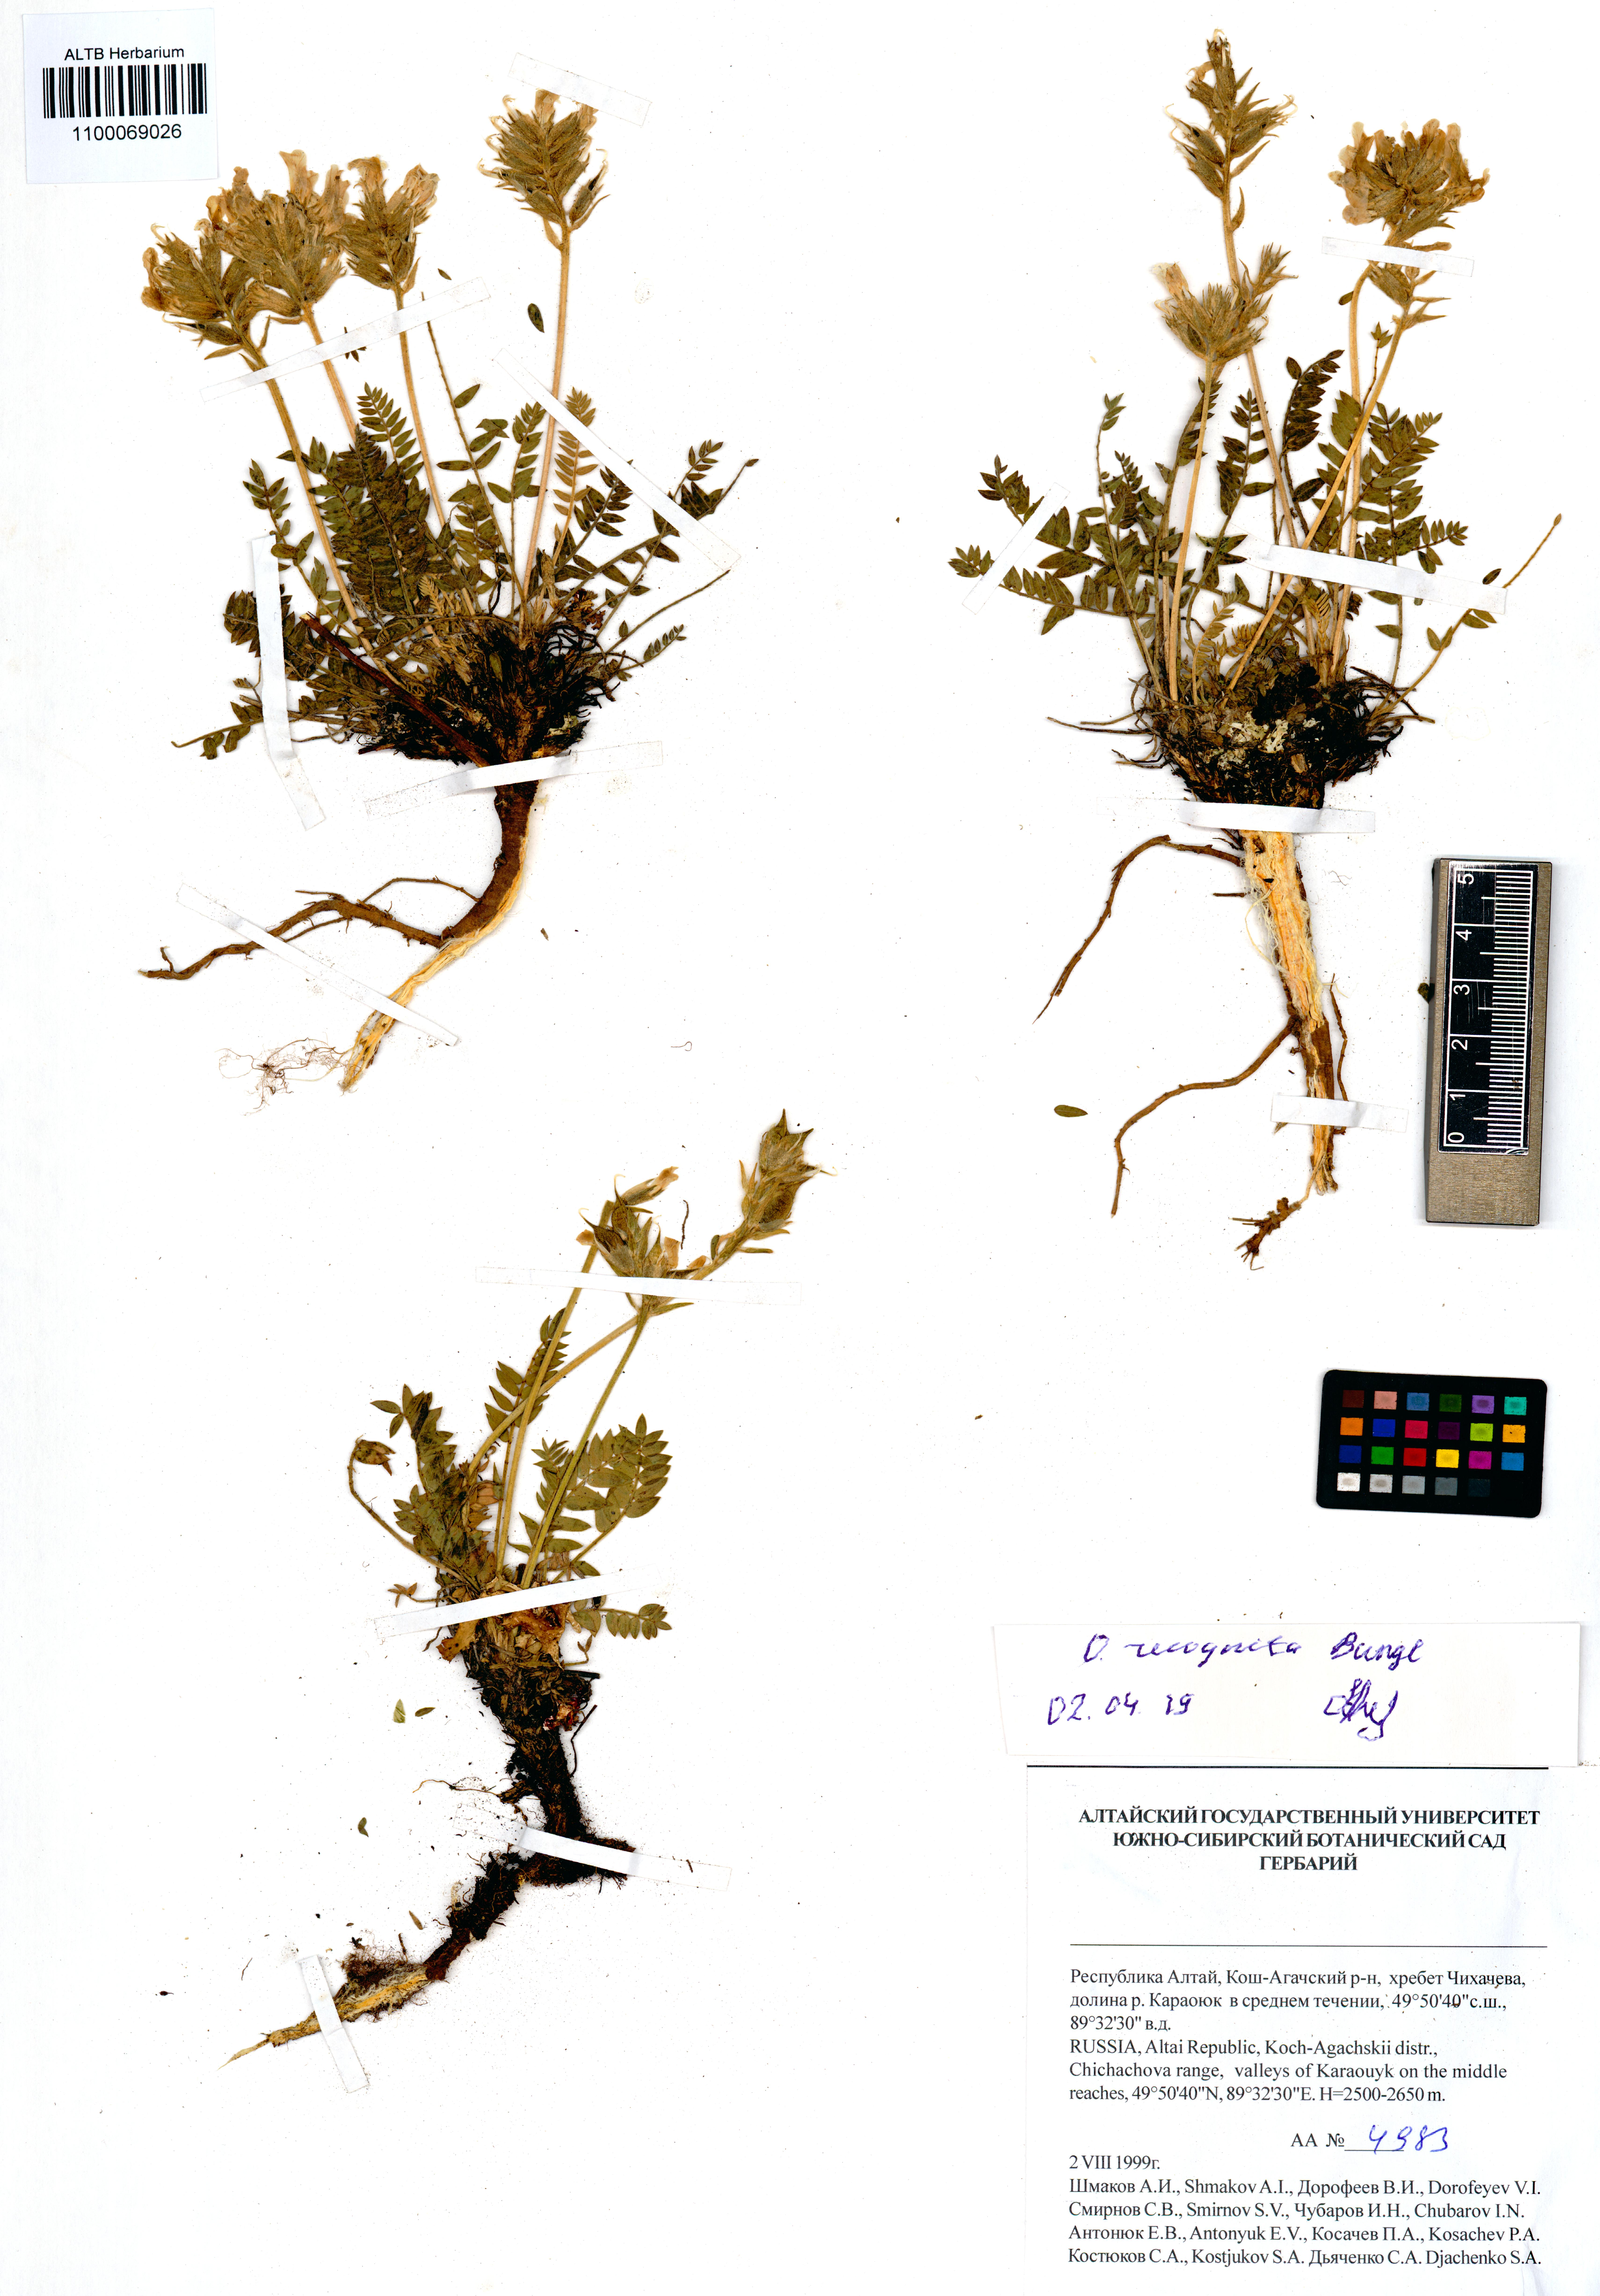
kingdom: Plantae
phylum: Tracheophyta
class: Magnoliopsida
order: Fabales
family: Fabaceae
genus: Oxytropis
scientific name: Oxytropis recognita
